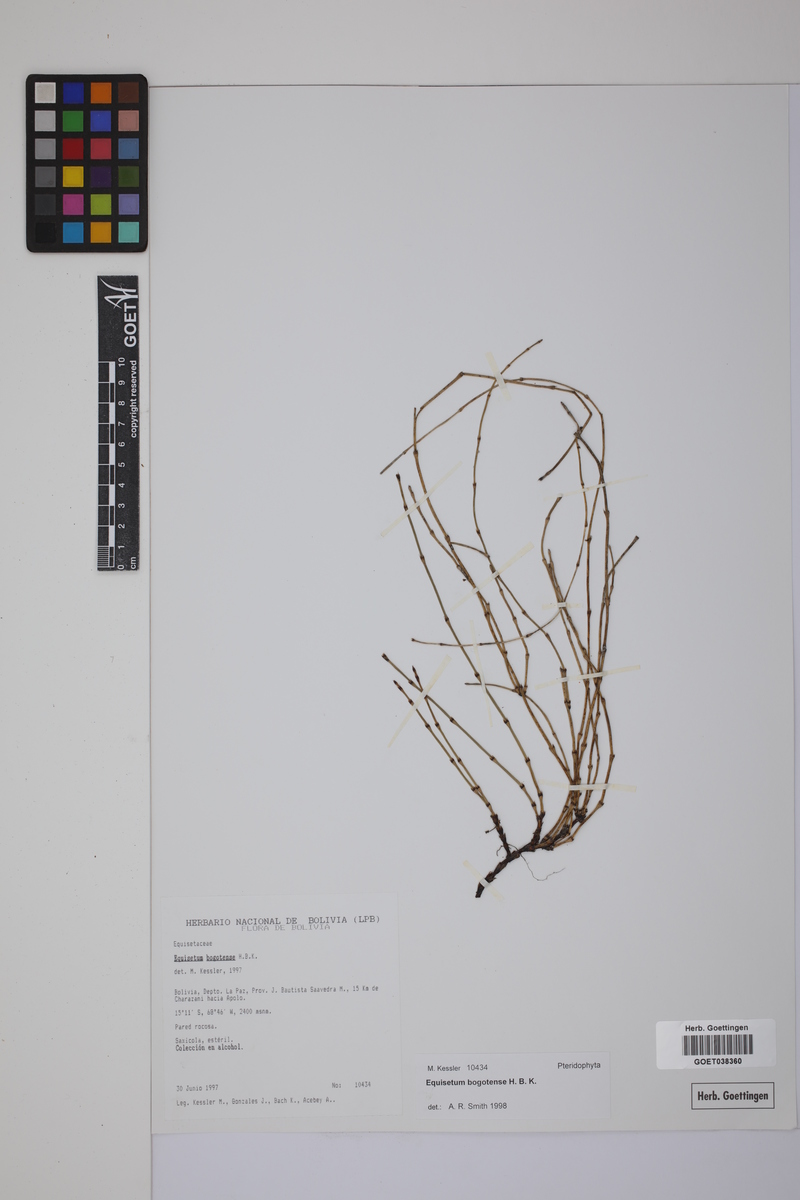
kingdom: Plantae
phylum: Tracheophyta
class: Polypodiopsida
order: Equisetales
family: Equisetaceae
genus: Equisetum
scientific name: Equisetum bogotense
